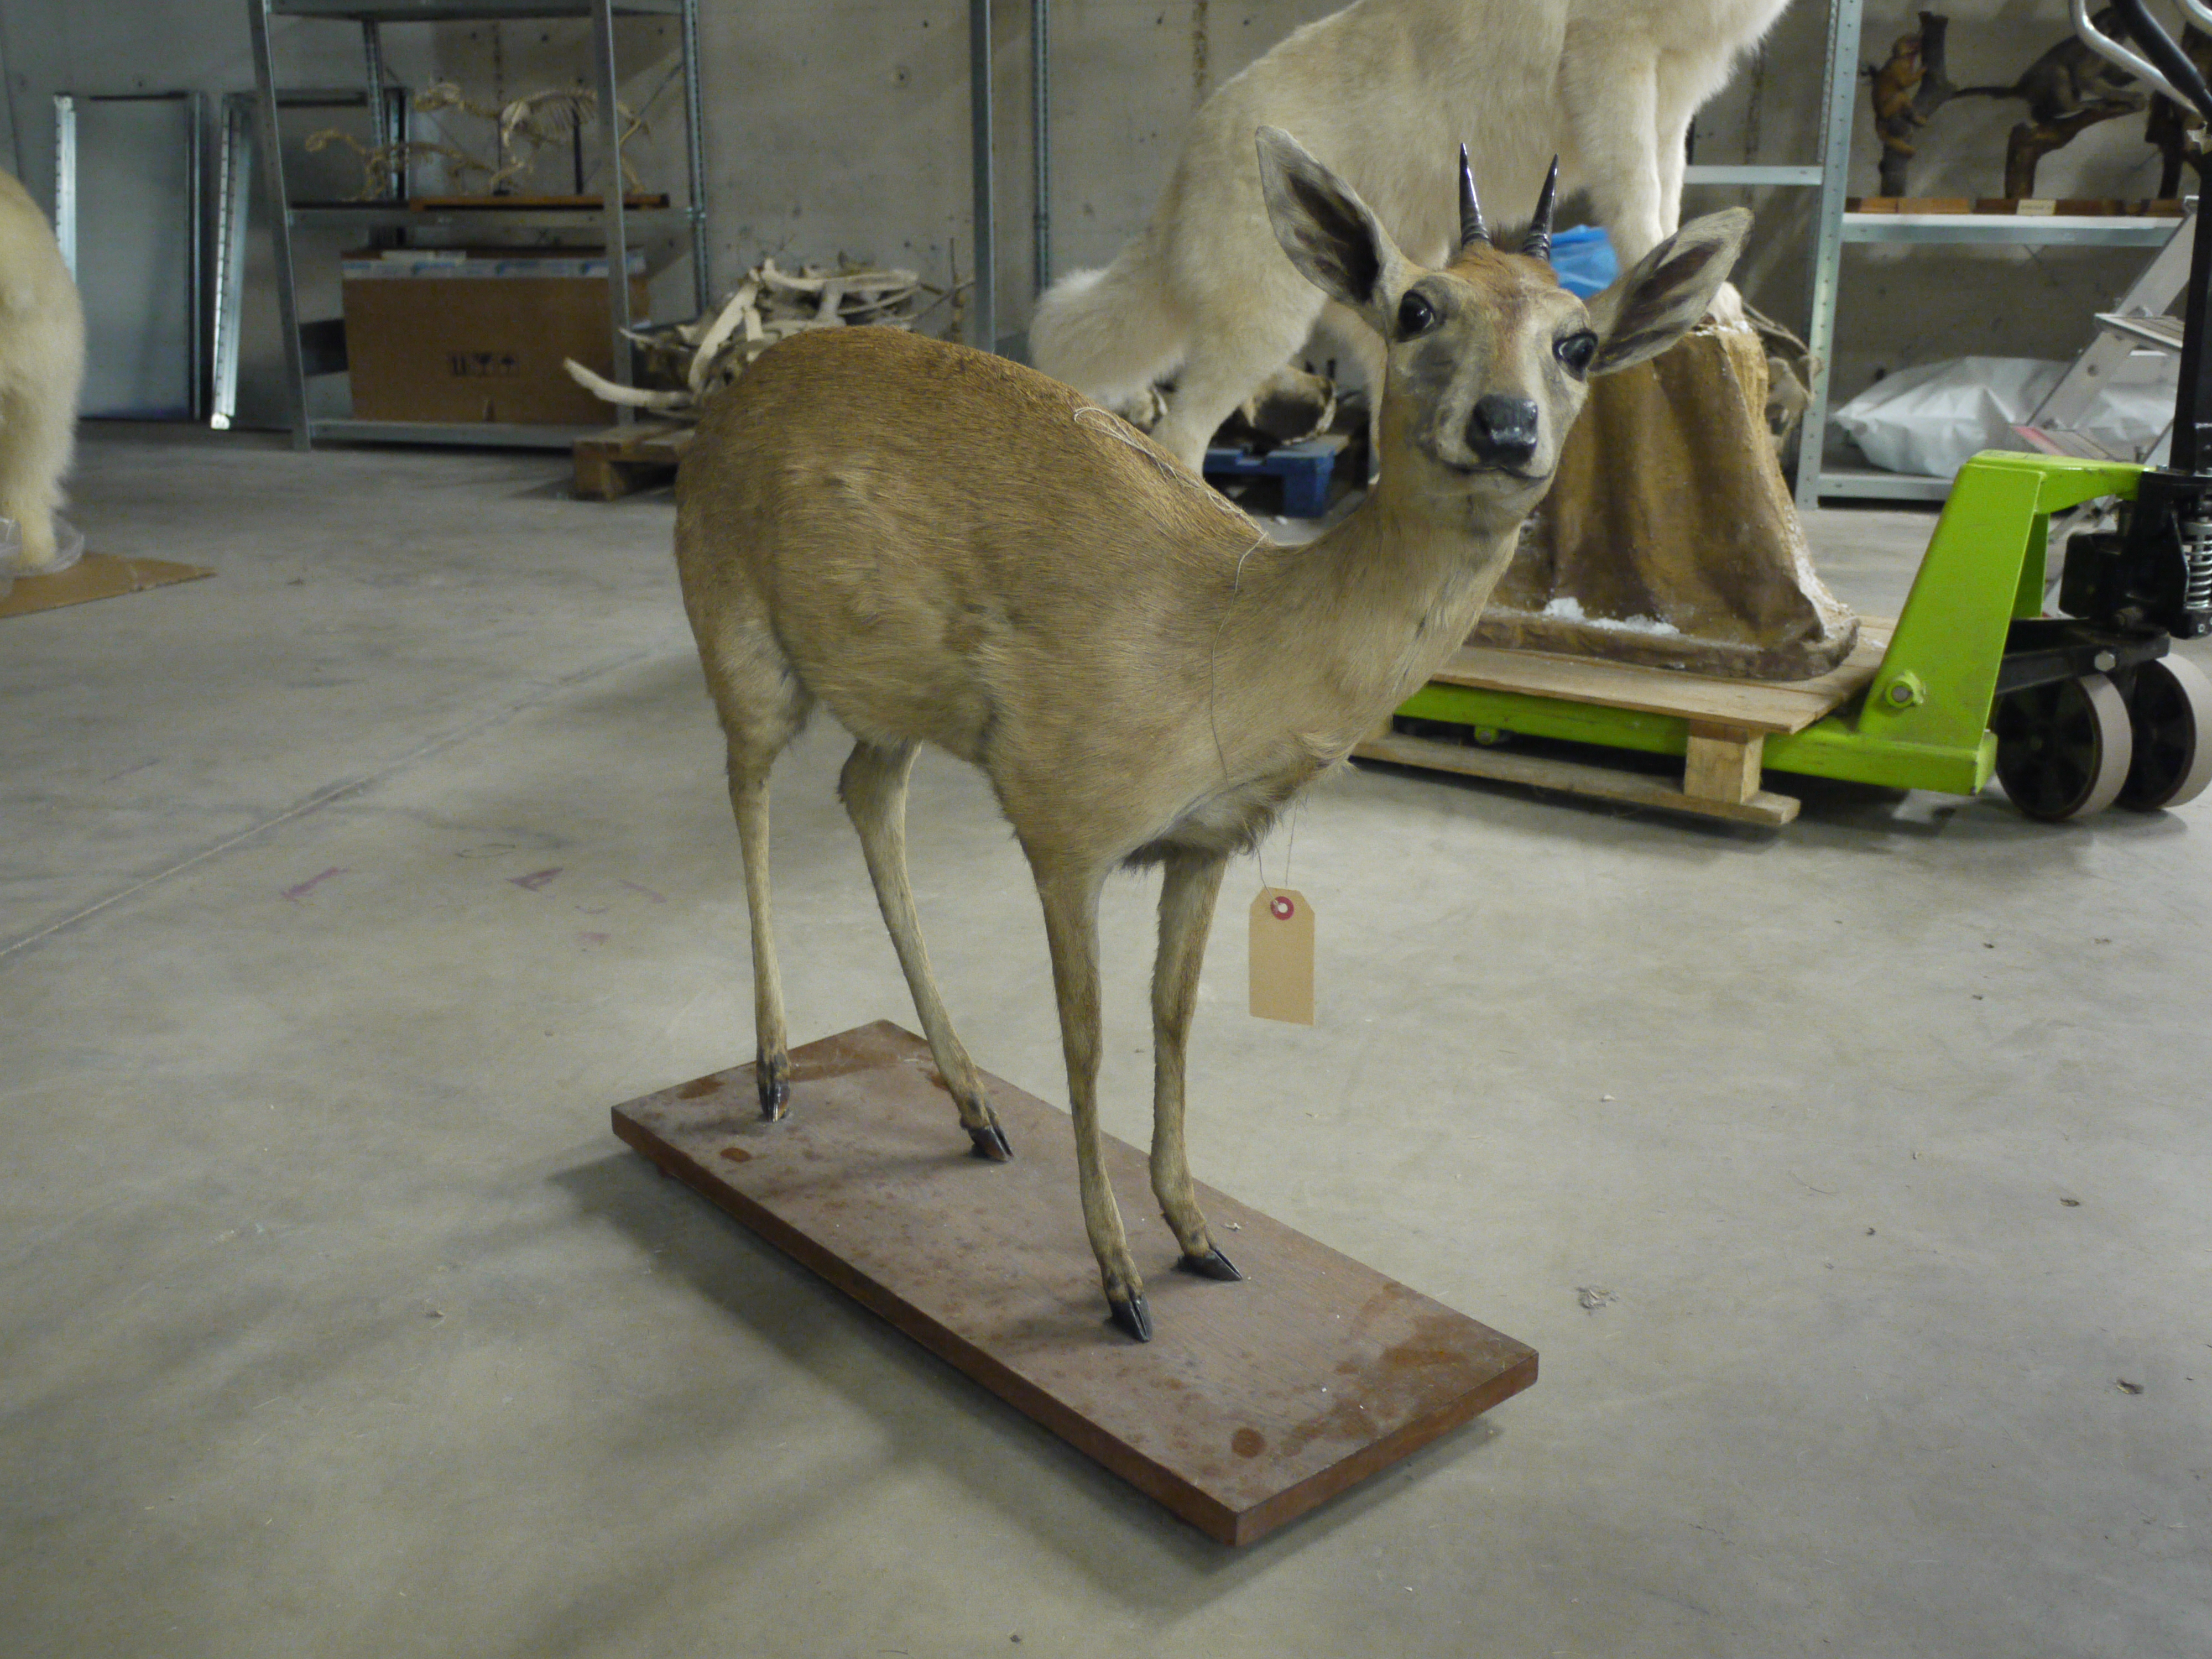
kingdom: Animalia
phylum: Chordata
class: Mammalia
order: Artiodactyla
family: Bovidae
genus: Raphicerus
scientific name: Raphicerus campestris
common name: Steenbok
